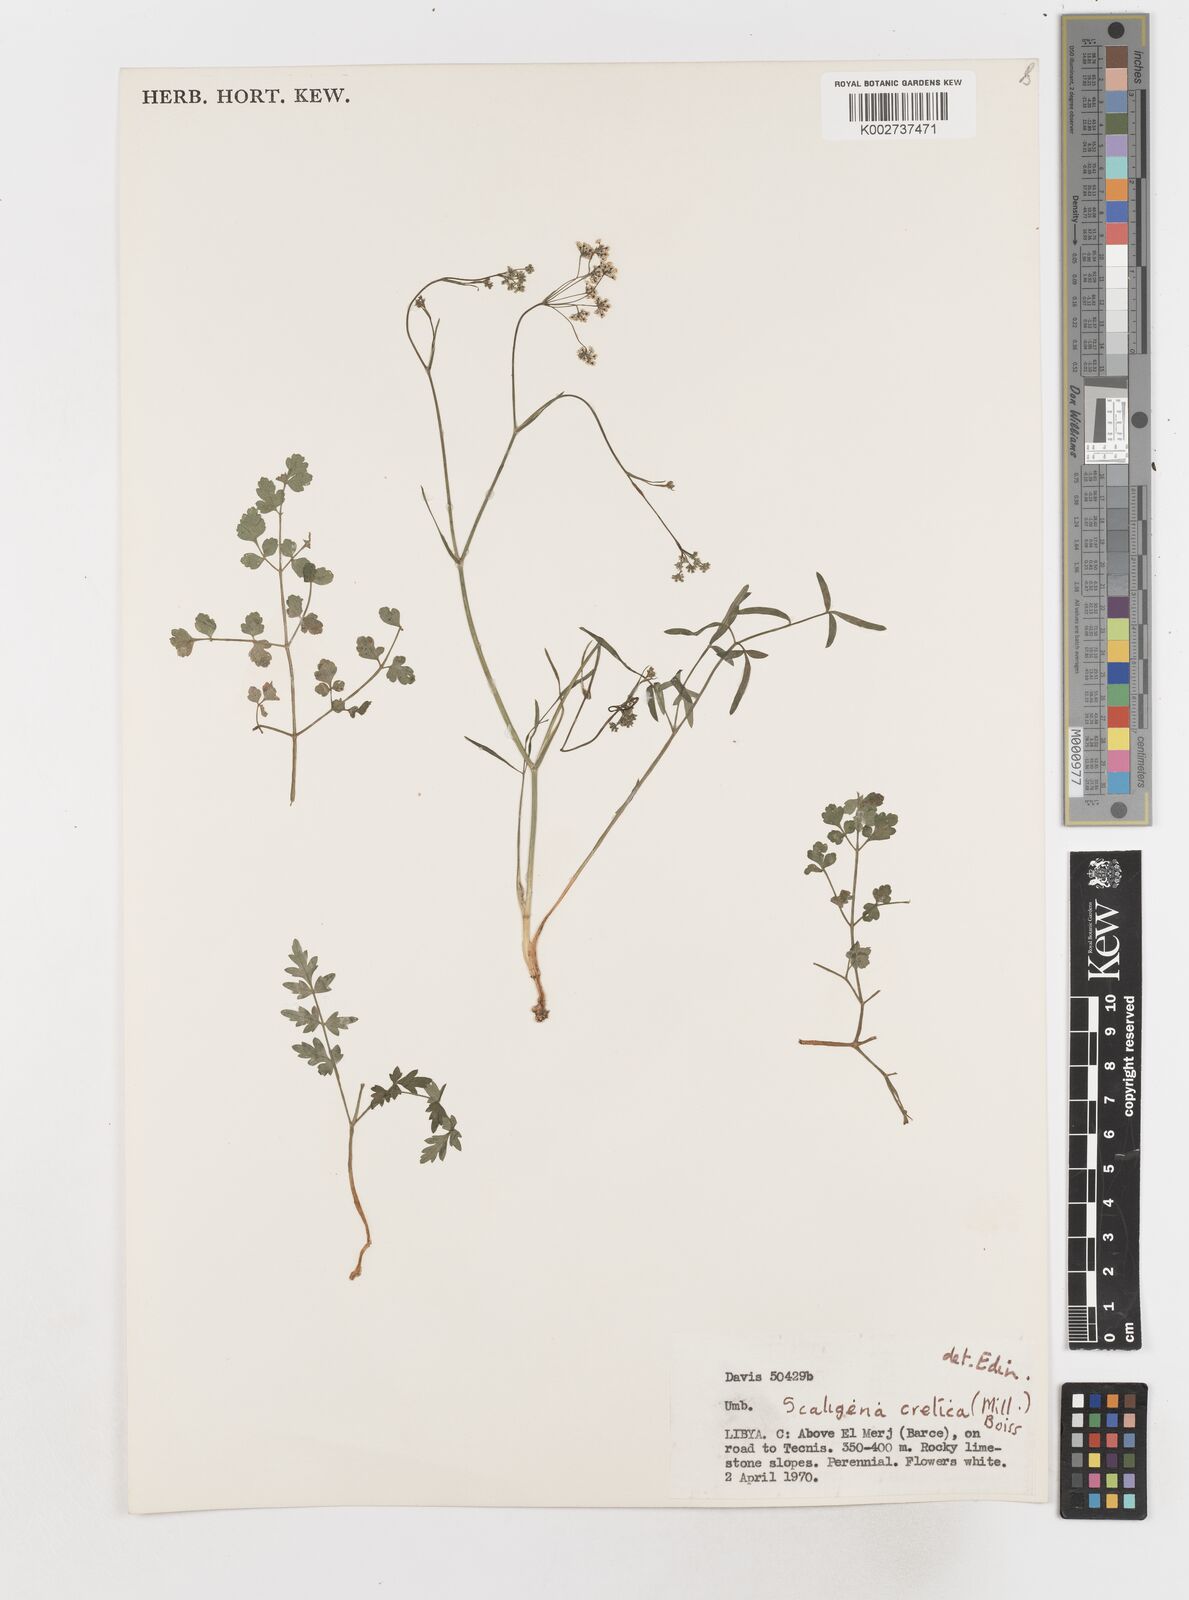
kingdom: Plantae
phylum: Tracheophyta
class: Magnoliopsida
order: Apiales
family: Apiaceae
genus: Scaligeria
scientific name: Scaligeria napiformis
